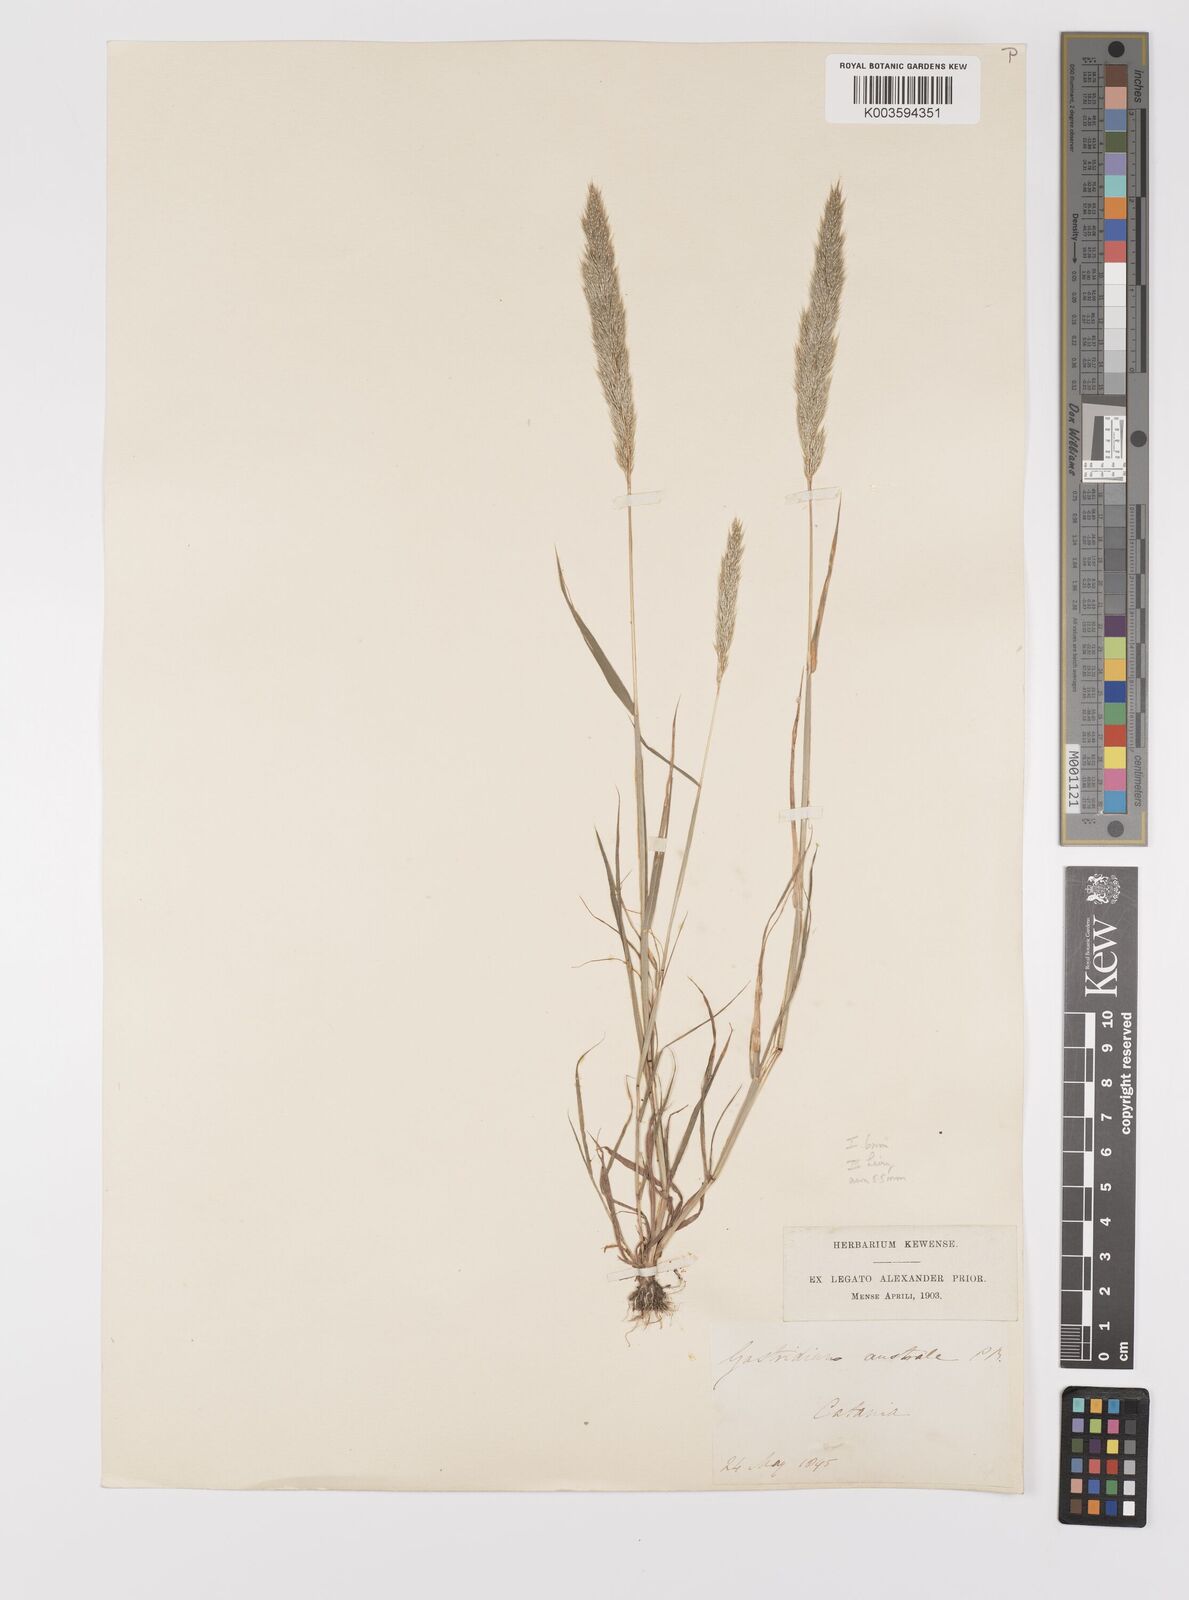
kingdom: Plantae
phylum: Tracheophyta
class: Liliopsida
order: Poales
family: Poaceae
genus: Gastridium
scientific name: Gastridium phleoides
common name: Nit grass
